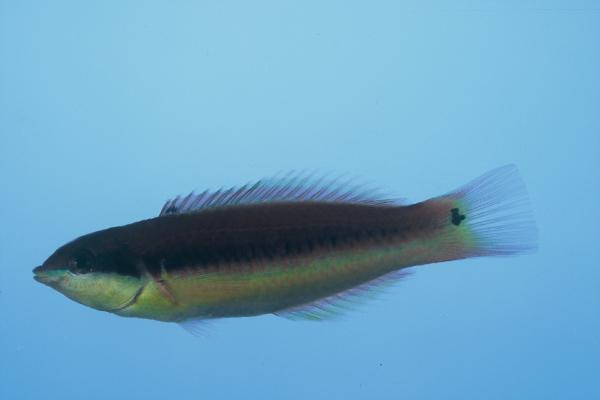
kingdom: Animalia
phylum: Chordata
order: Perciformes
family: Labridae
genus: Thalassoma
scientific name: Thalassoma genivittatum
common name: Red-cheek wrasse
